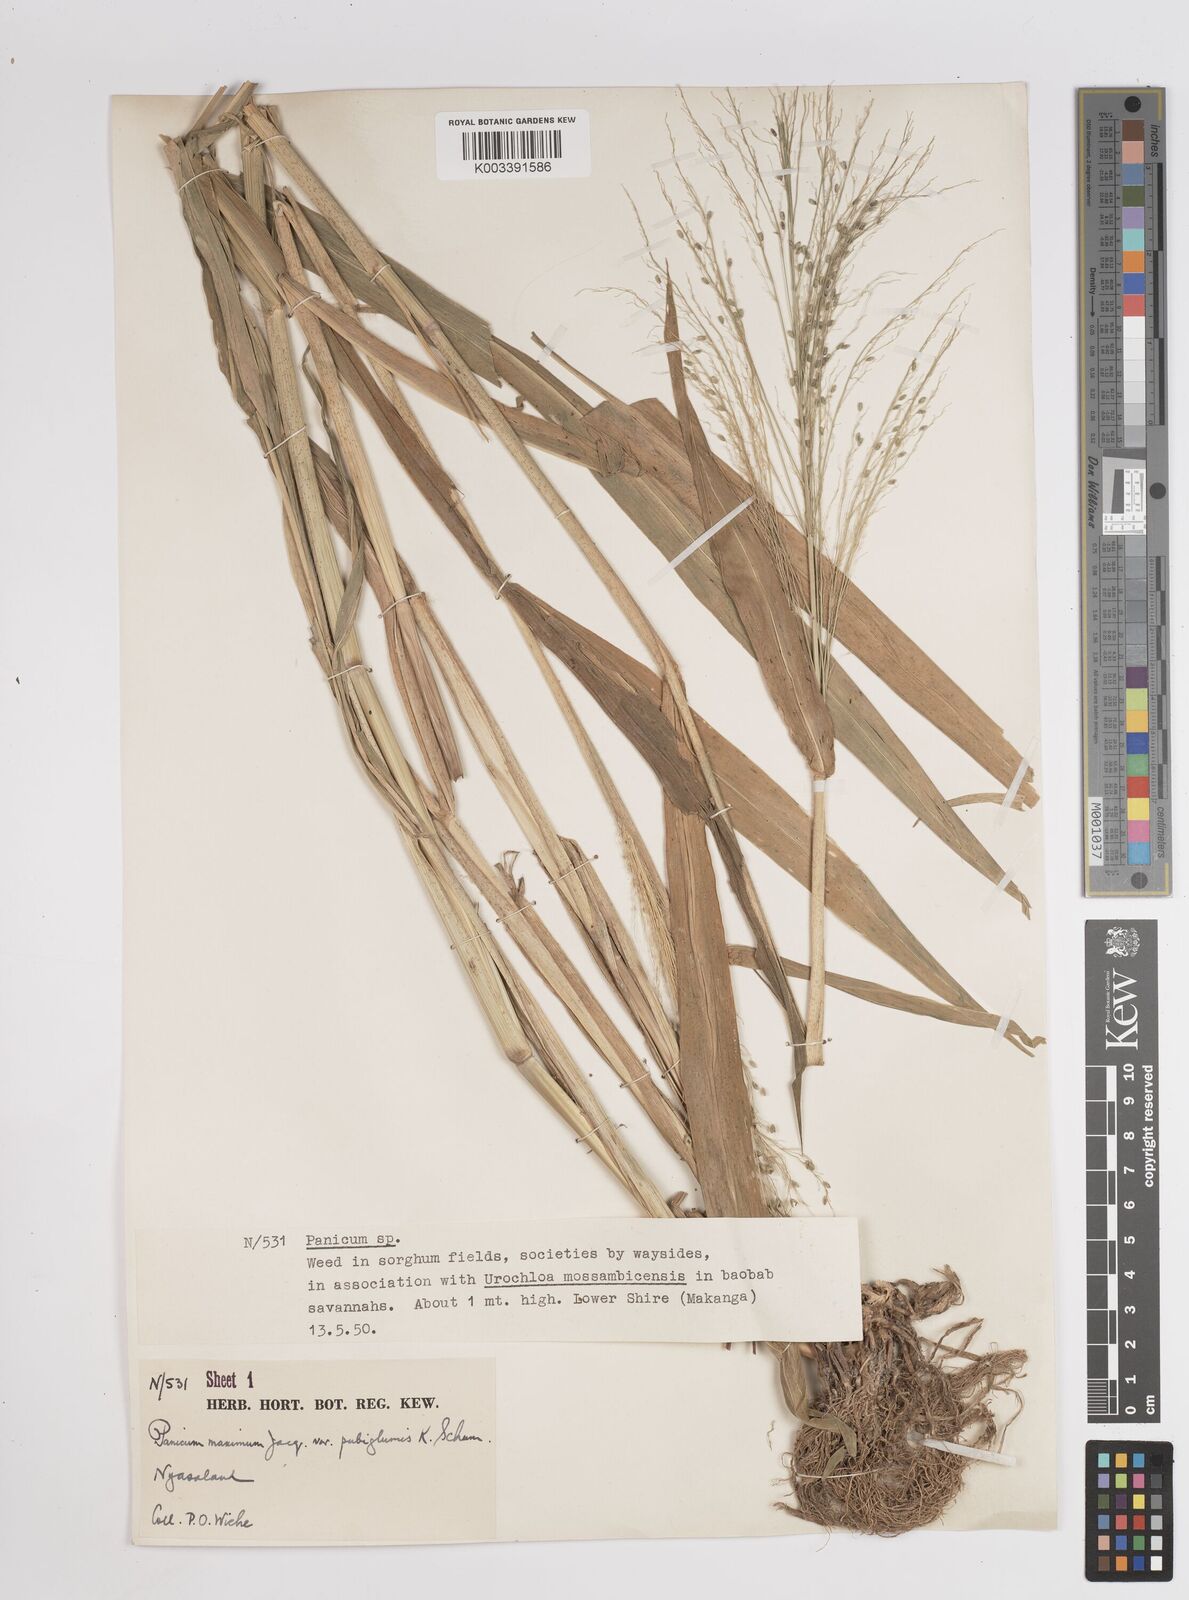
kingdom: Plantae
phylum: Tracheophyta
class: Liliopsida
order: Poales
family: Poaceae
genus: Megathyrsus
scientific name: Megathyrsus maximus
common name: Guineagrass
